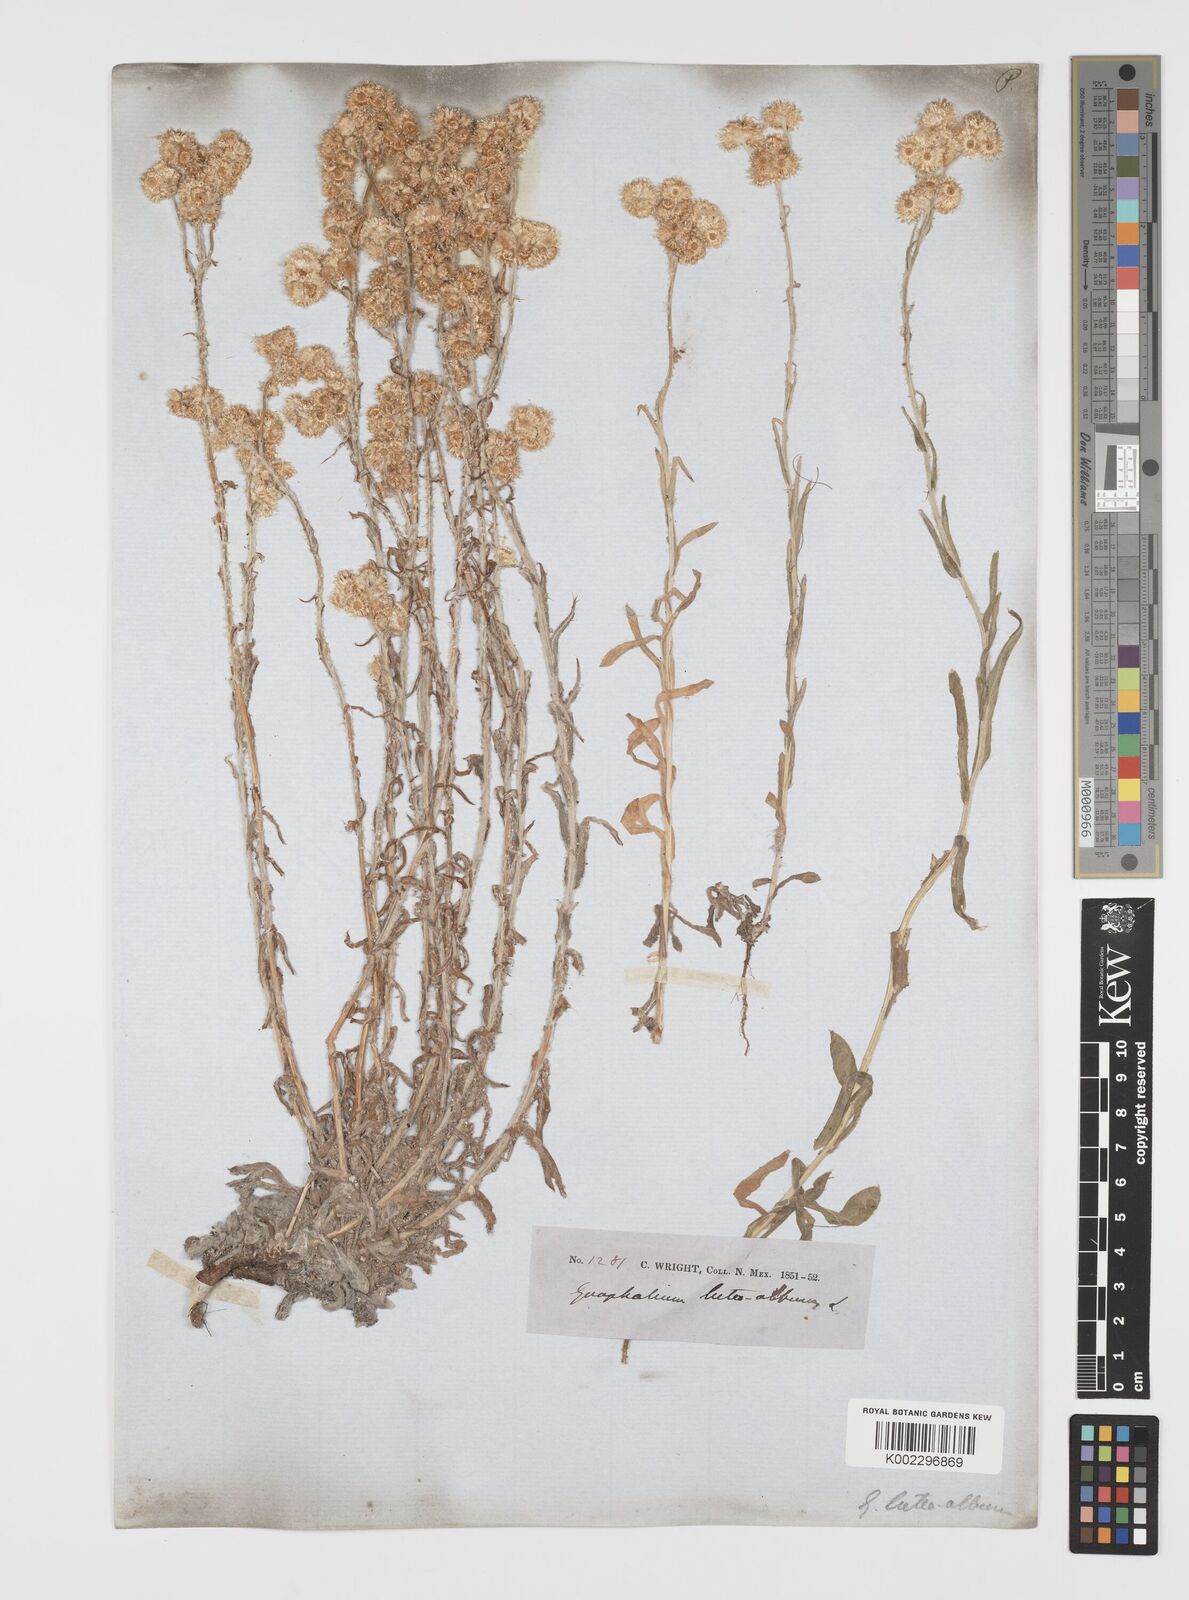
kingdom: Plantae
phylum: Tracheophyta
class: Magnoliopsida
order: Asterales
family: Asteraceae
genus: Helichrysum
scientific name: Helichrysum luteoalbum
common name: Daisy
